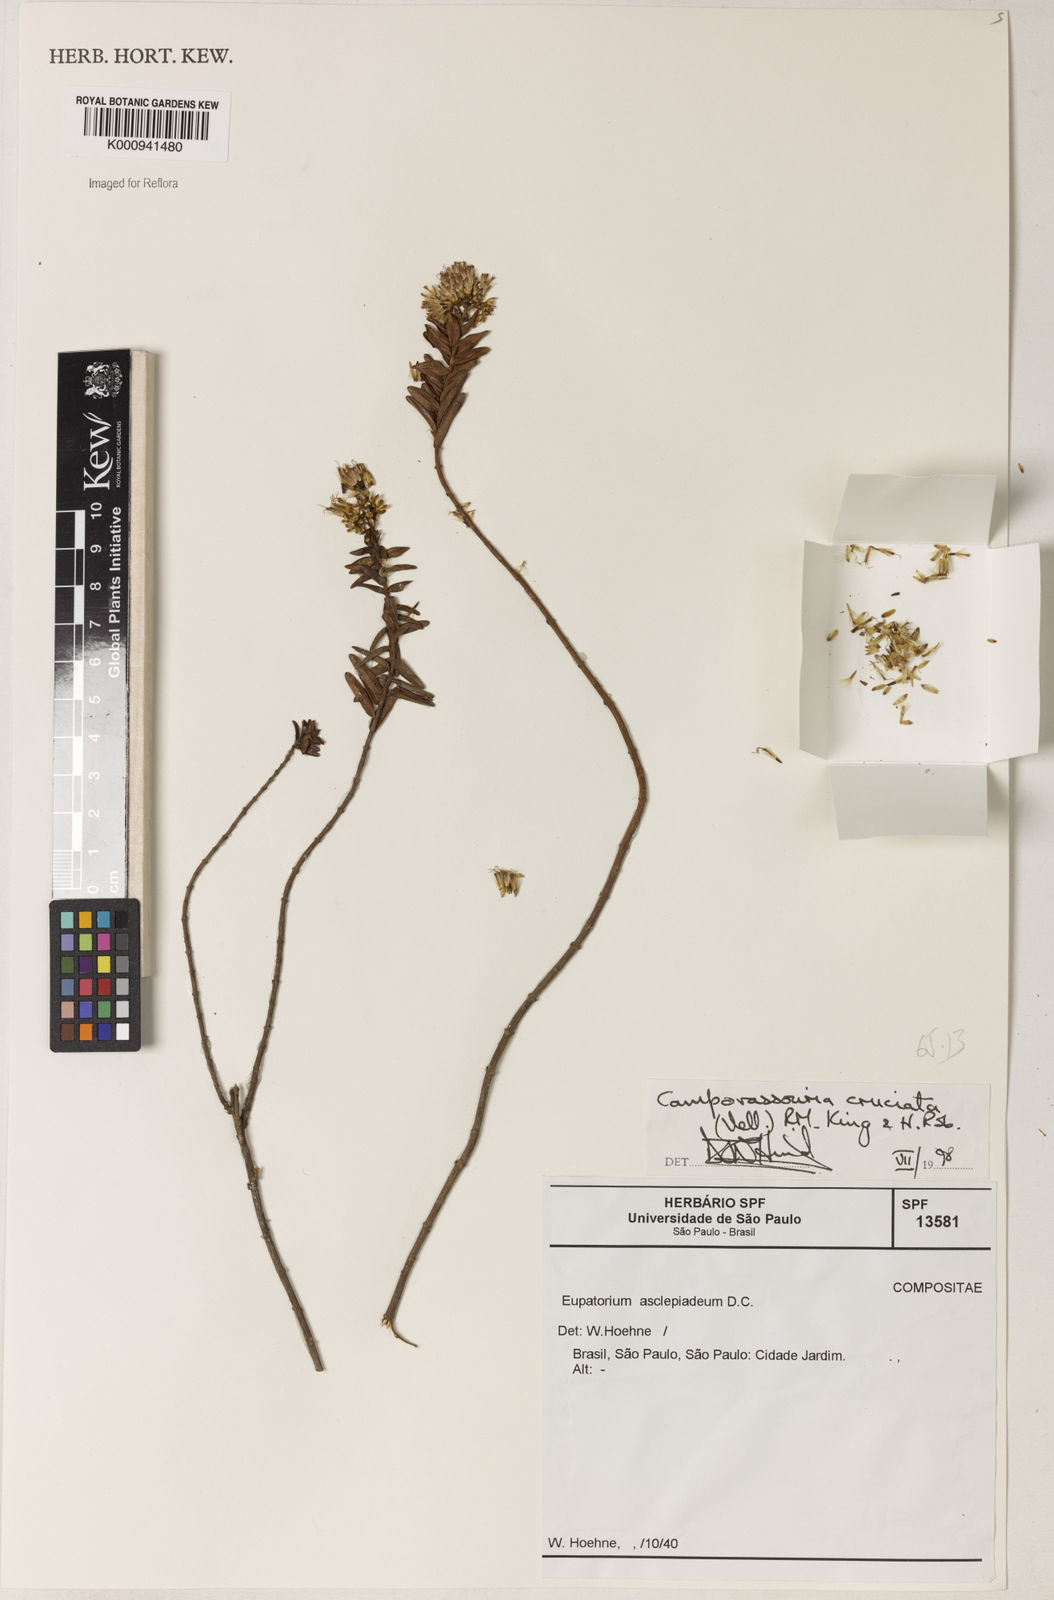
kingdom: Plantae
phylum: Tracheophyta
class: Magnoliopsida
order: Asterales
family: Asteraceae
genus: Campovassouria
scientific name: Campovassouria cruciata
